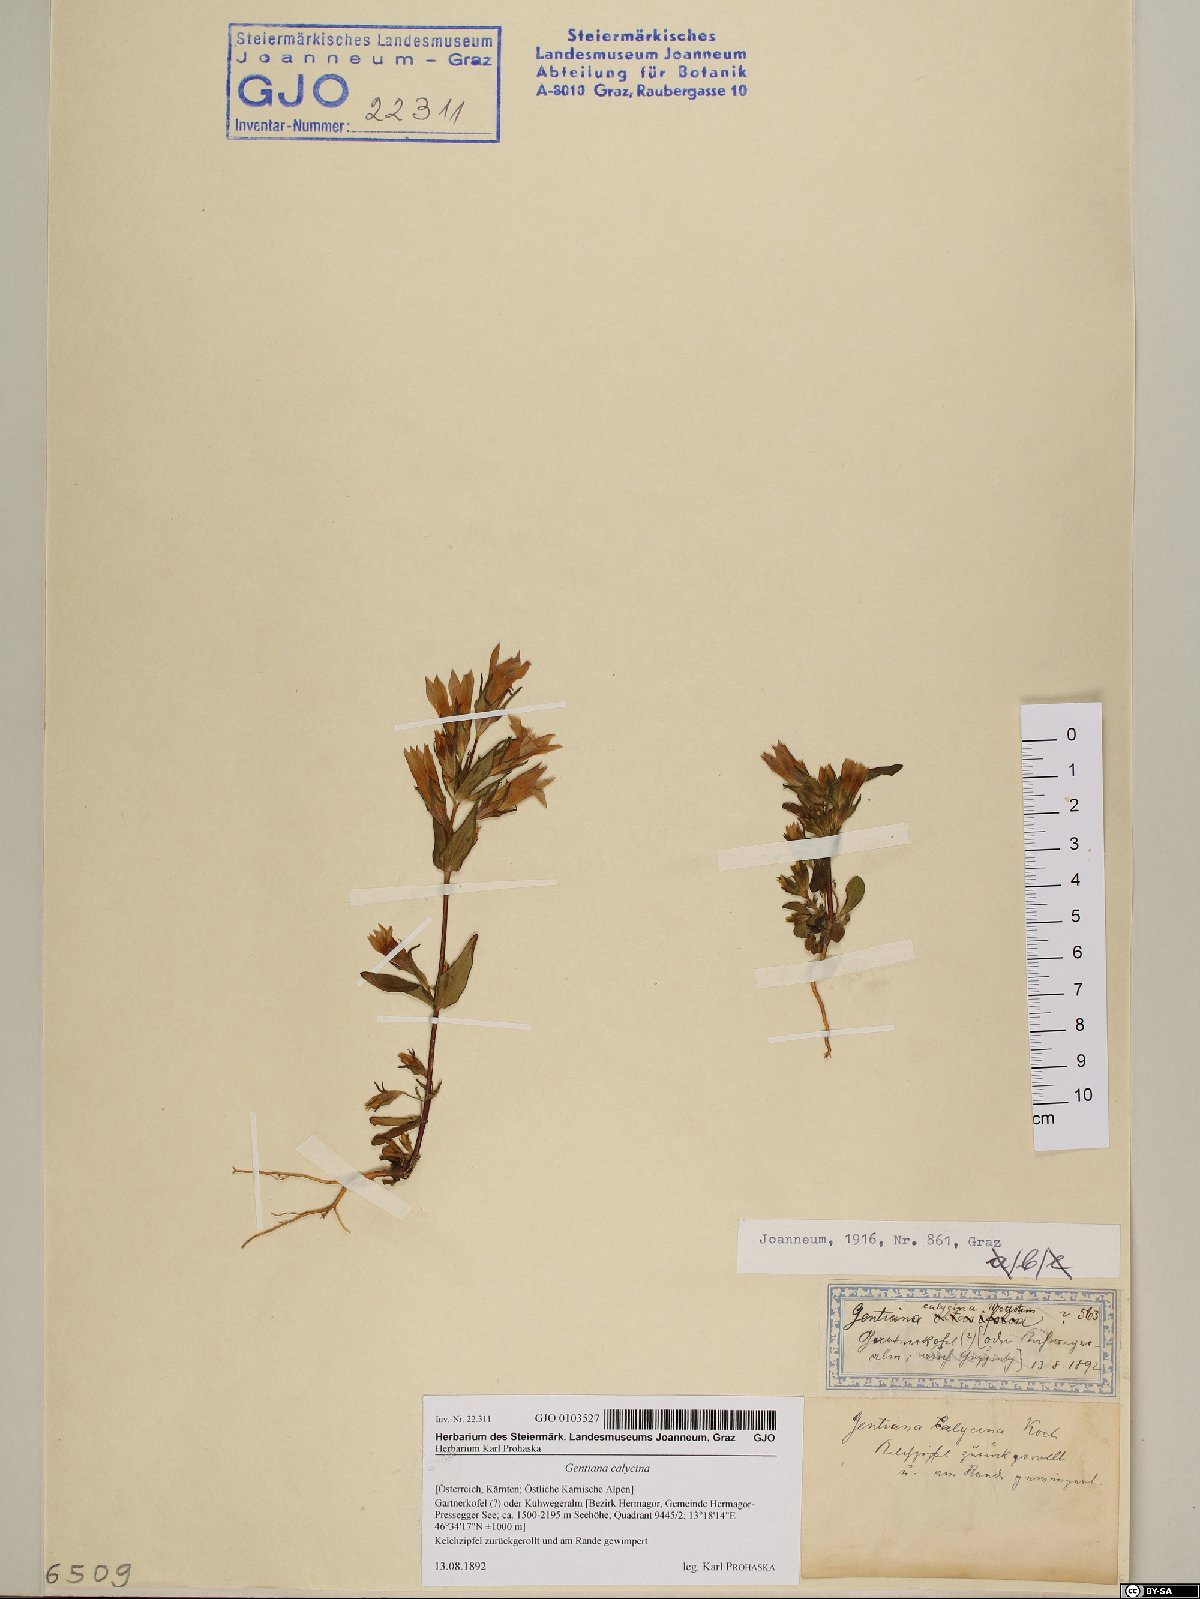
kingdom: Plantae
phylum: Tracheophyta
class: Magnoliopsida
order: Gentianales
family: Gentianaceae
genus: Gentianella
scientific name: Gentianella germanica
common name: Chiltern-gentian
